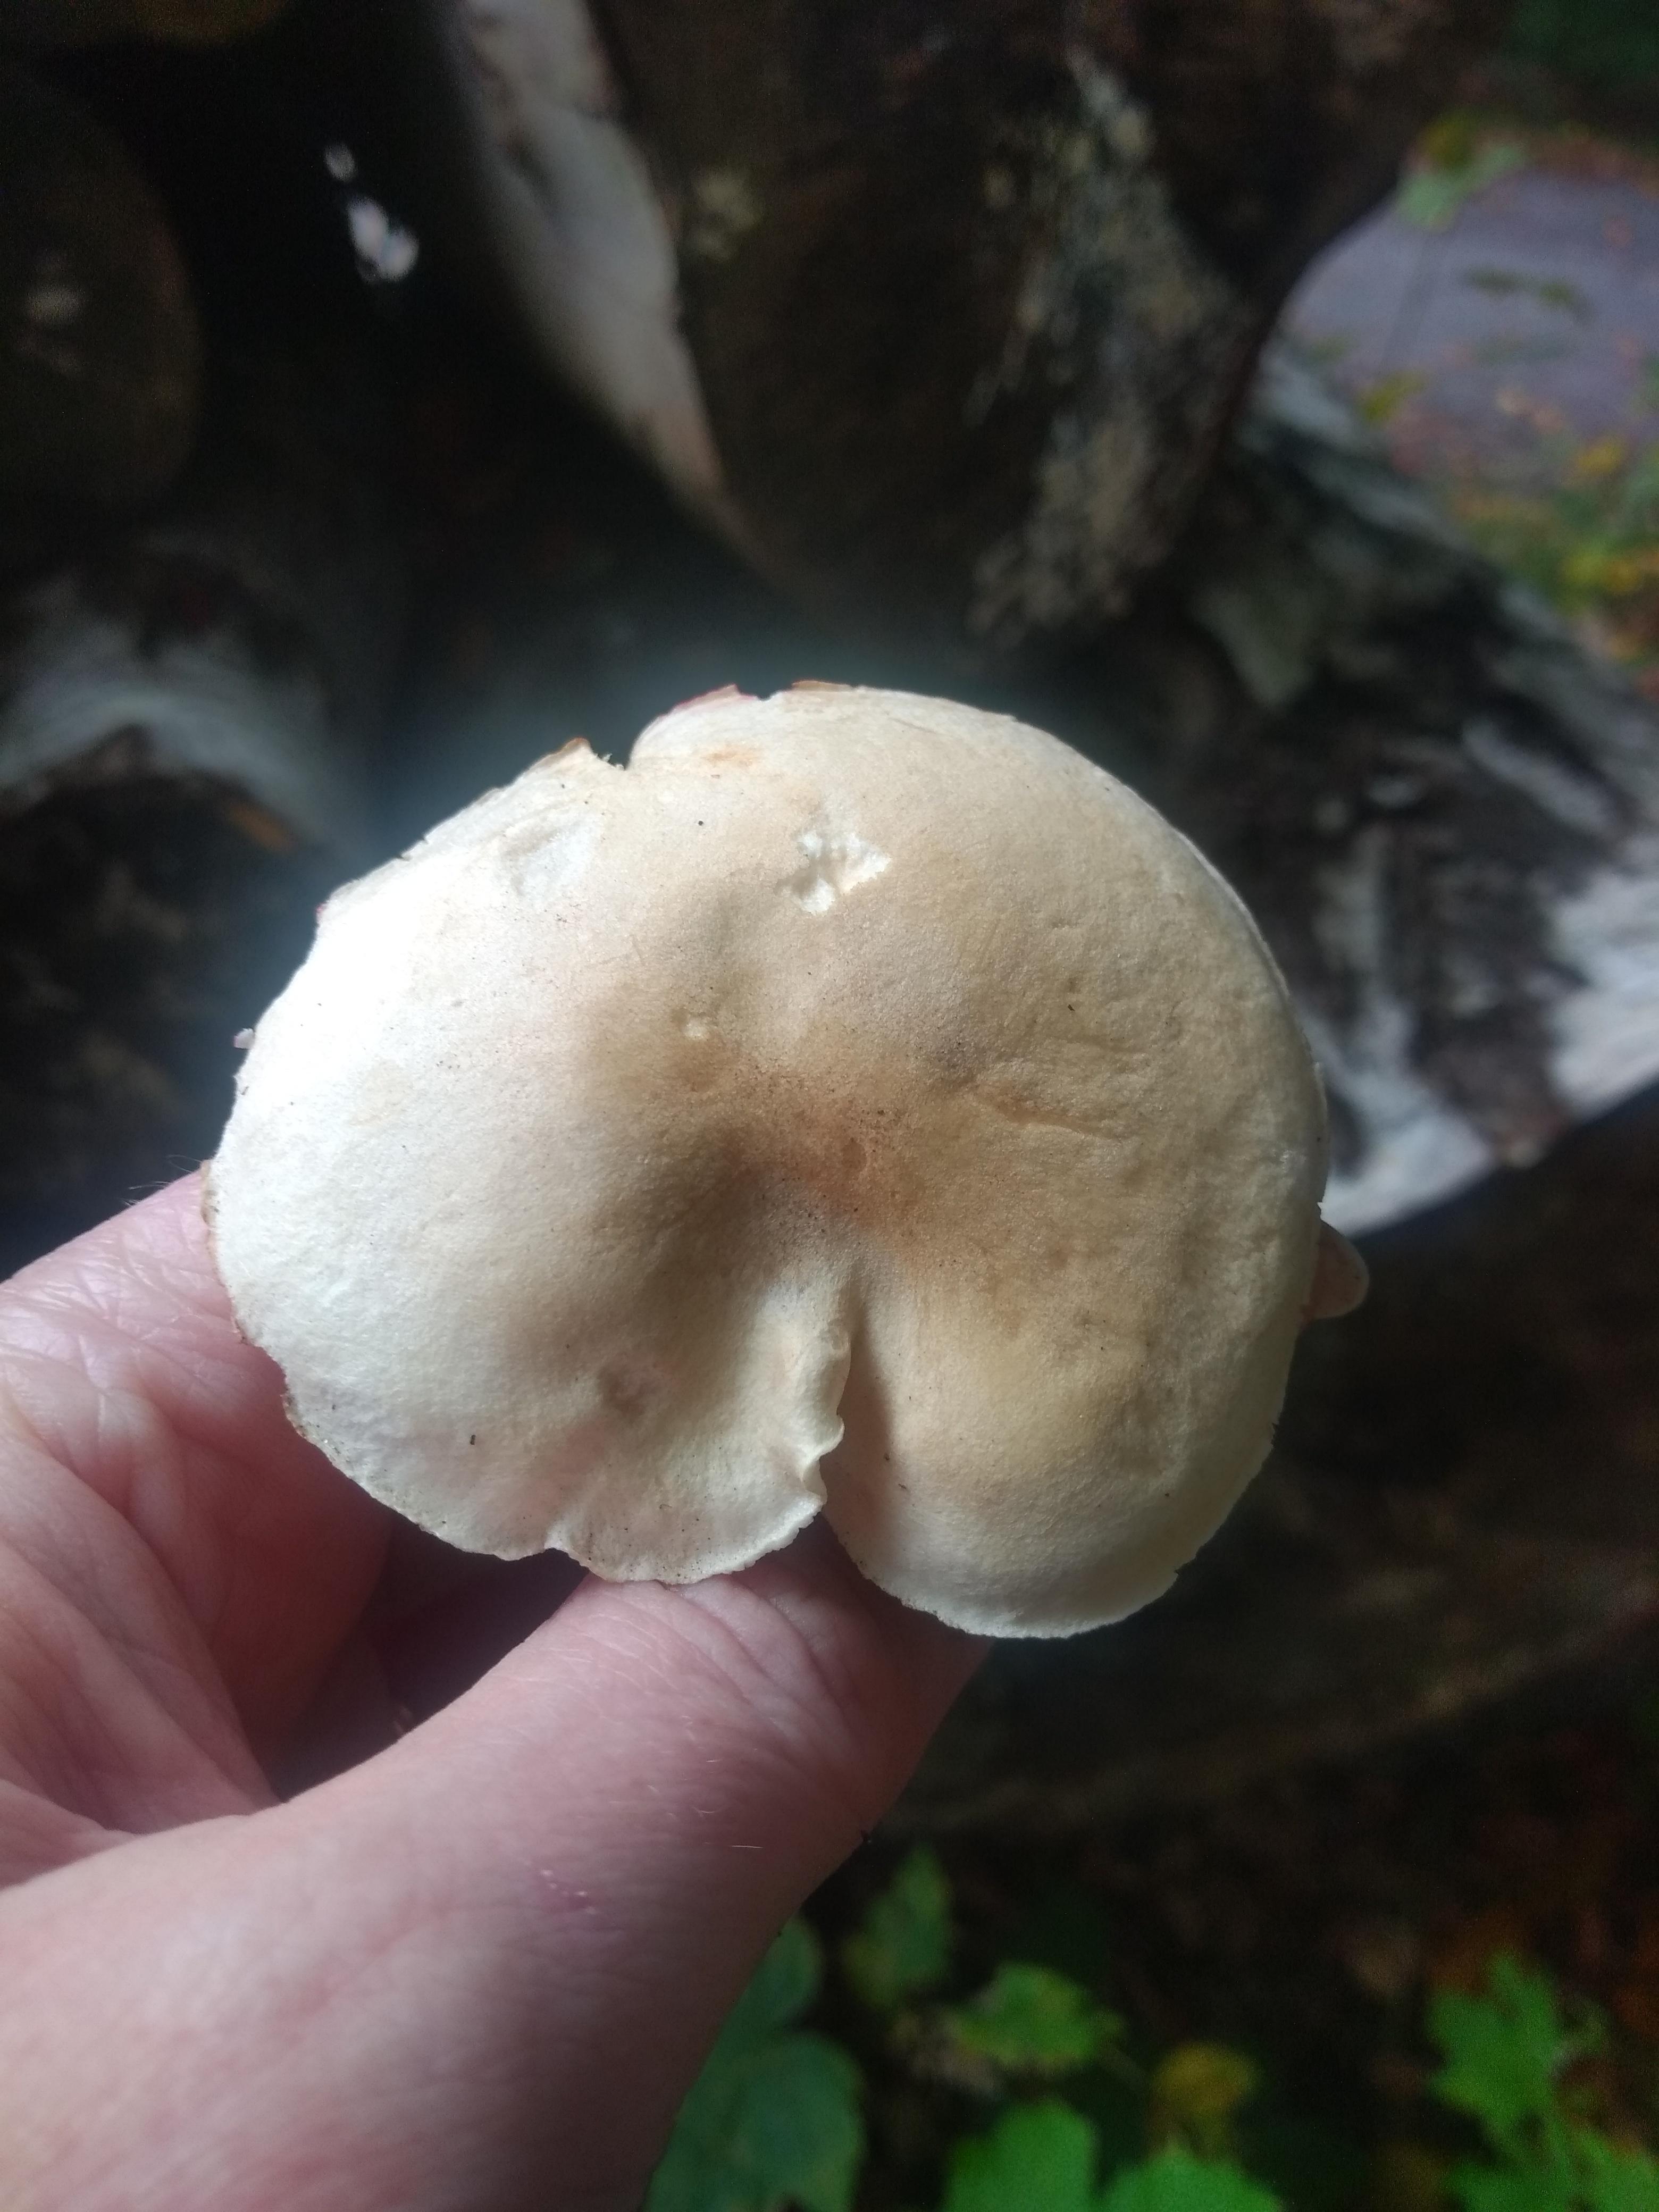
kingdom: Fungi
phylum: Basidiomycota
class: Agaricomycetes
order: Agaricales
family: Tricholomataceae
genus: Tricholoma
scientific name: Tricholoma lascivum
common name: stinkende ridderhat
